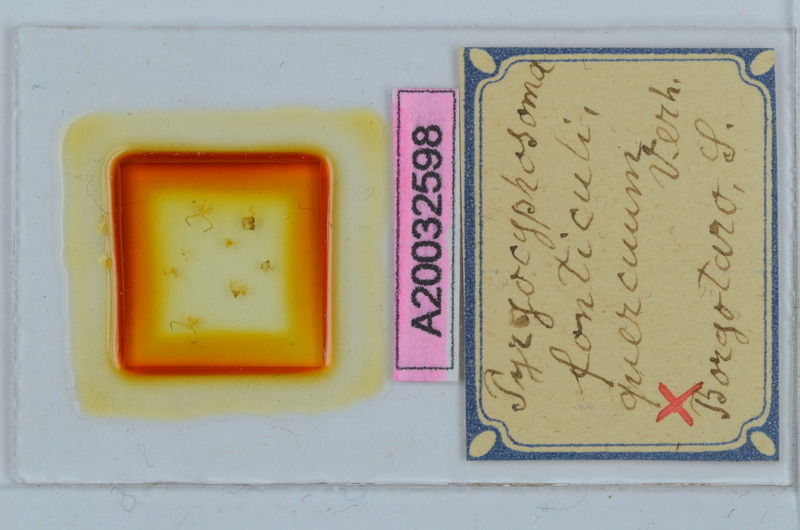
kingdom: Animalia
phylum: Arthropoda
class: Diplopoda
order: Chordeumatida
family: Craspedosomatidae
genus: Pyrgocyphosoma
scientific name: Pyrgocyphosoma quercuum
